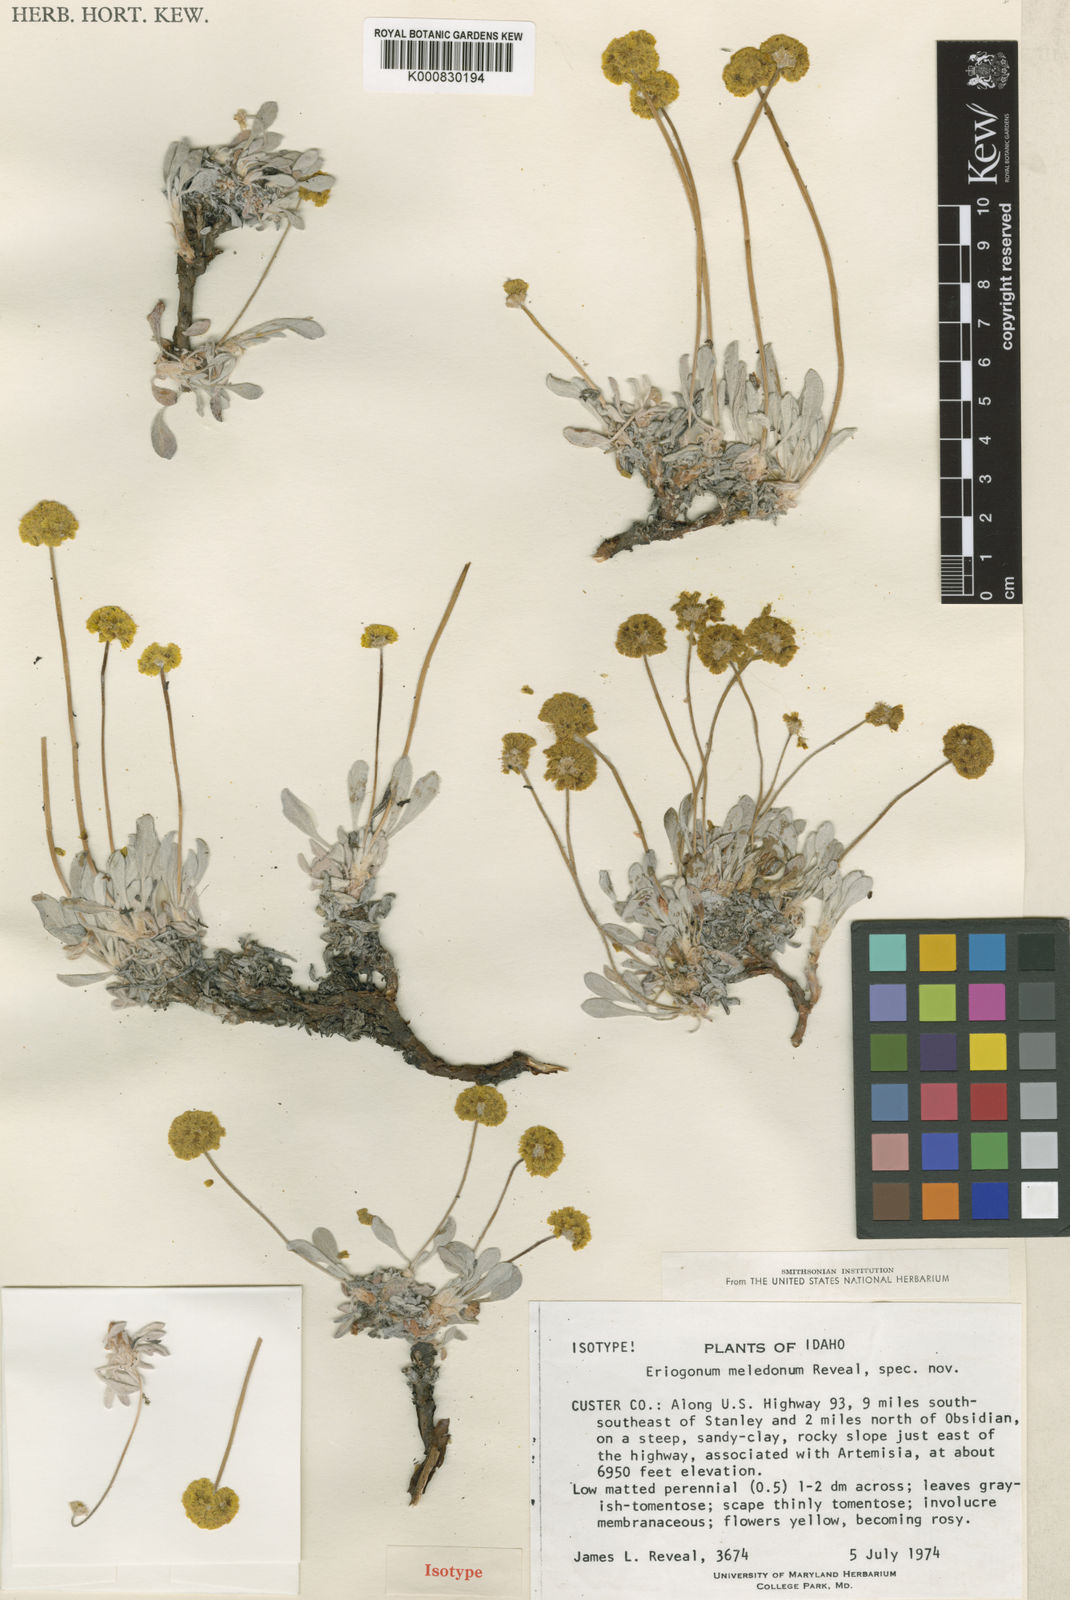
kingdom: Plantae
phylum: Tracheophyta
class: Magnoliopsida
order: Caryophyllales
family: Polygonaceae
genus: Eriogonum
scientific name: Eriogonum crosbyae
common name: Crosby's wild buckwheat
